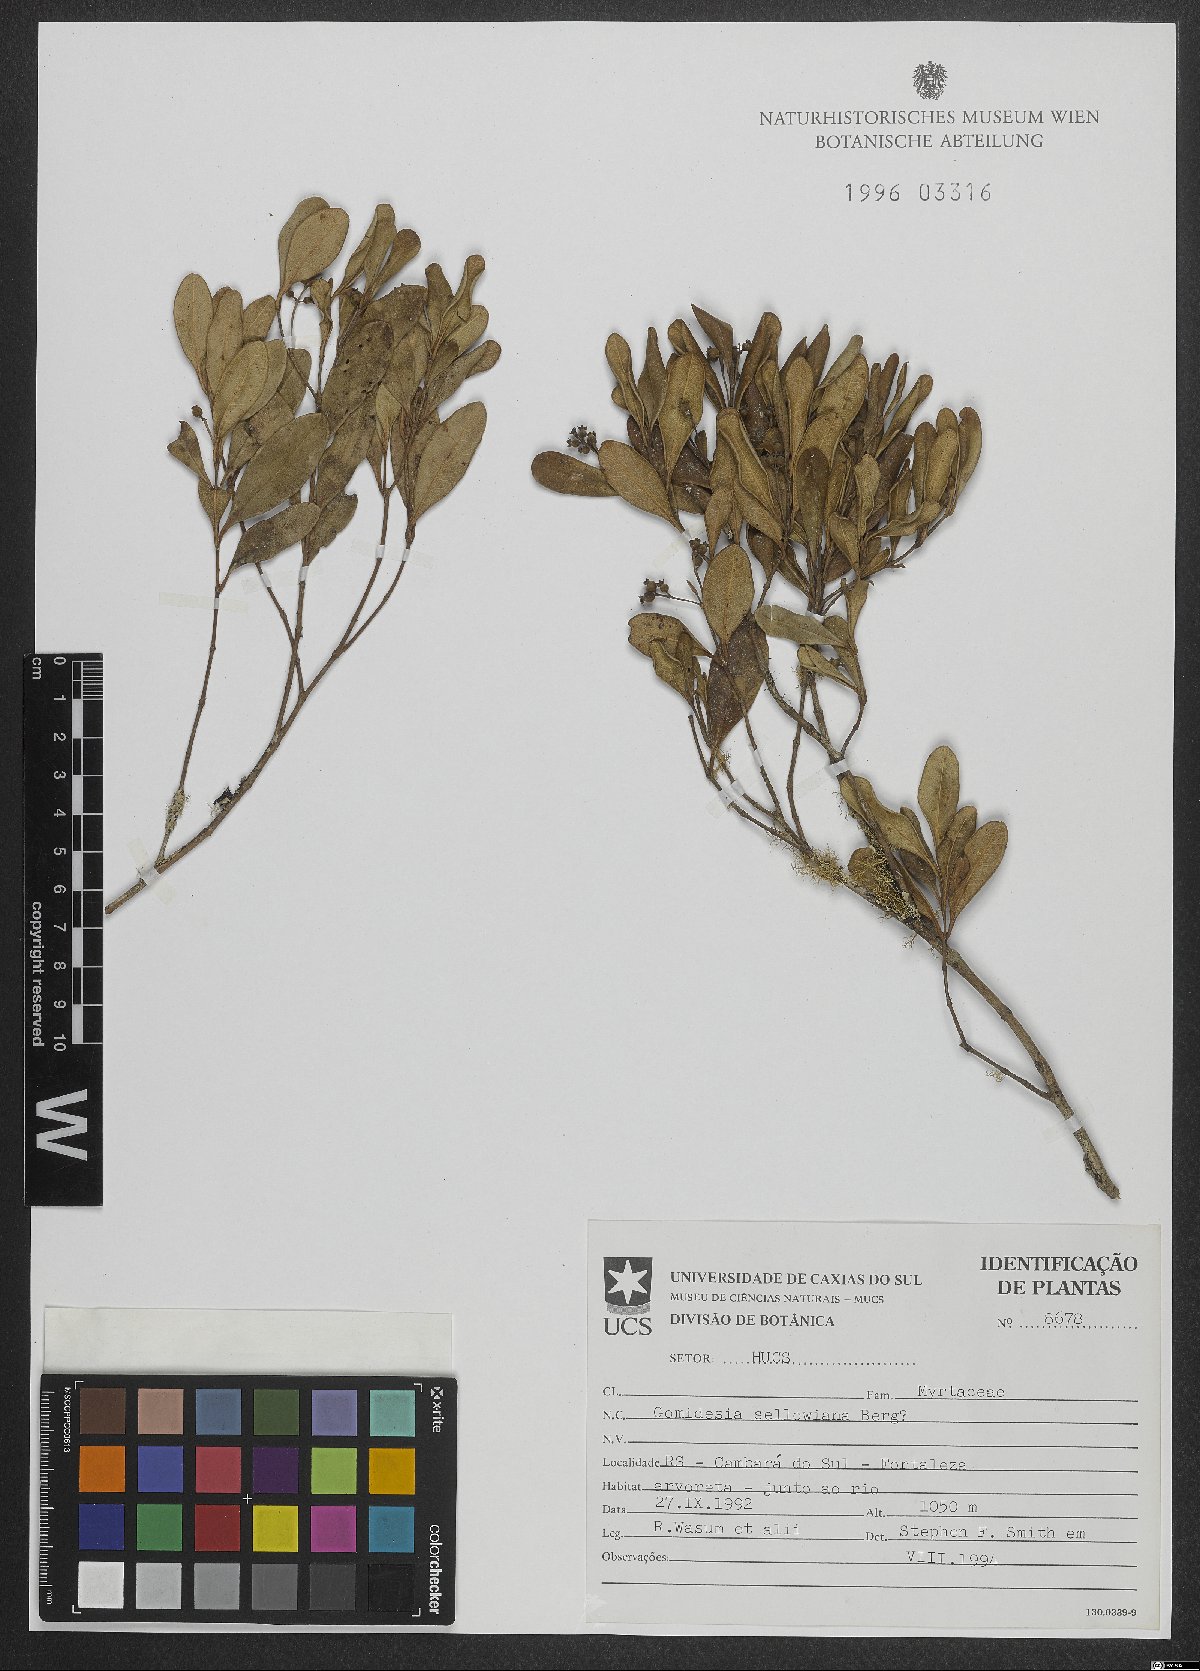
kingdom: Plantae
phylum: Tracheophyta
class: Magnoliopsida
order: Myrtales
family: Myrtaceae
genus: Myrcia
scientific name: Myrcia hartwegiana
